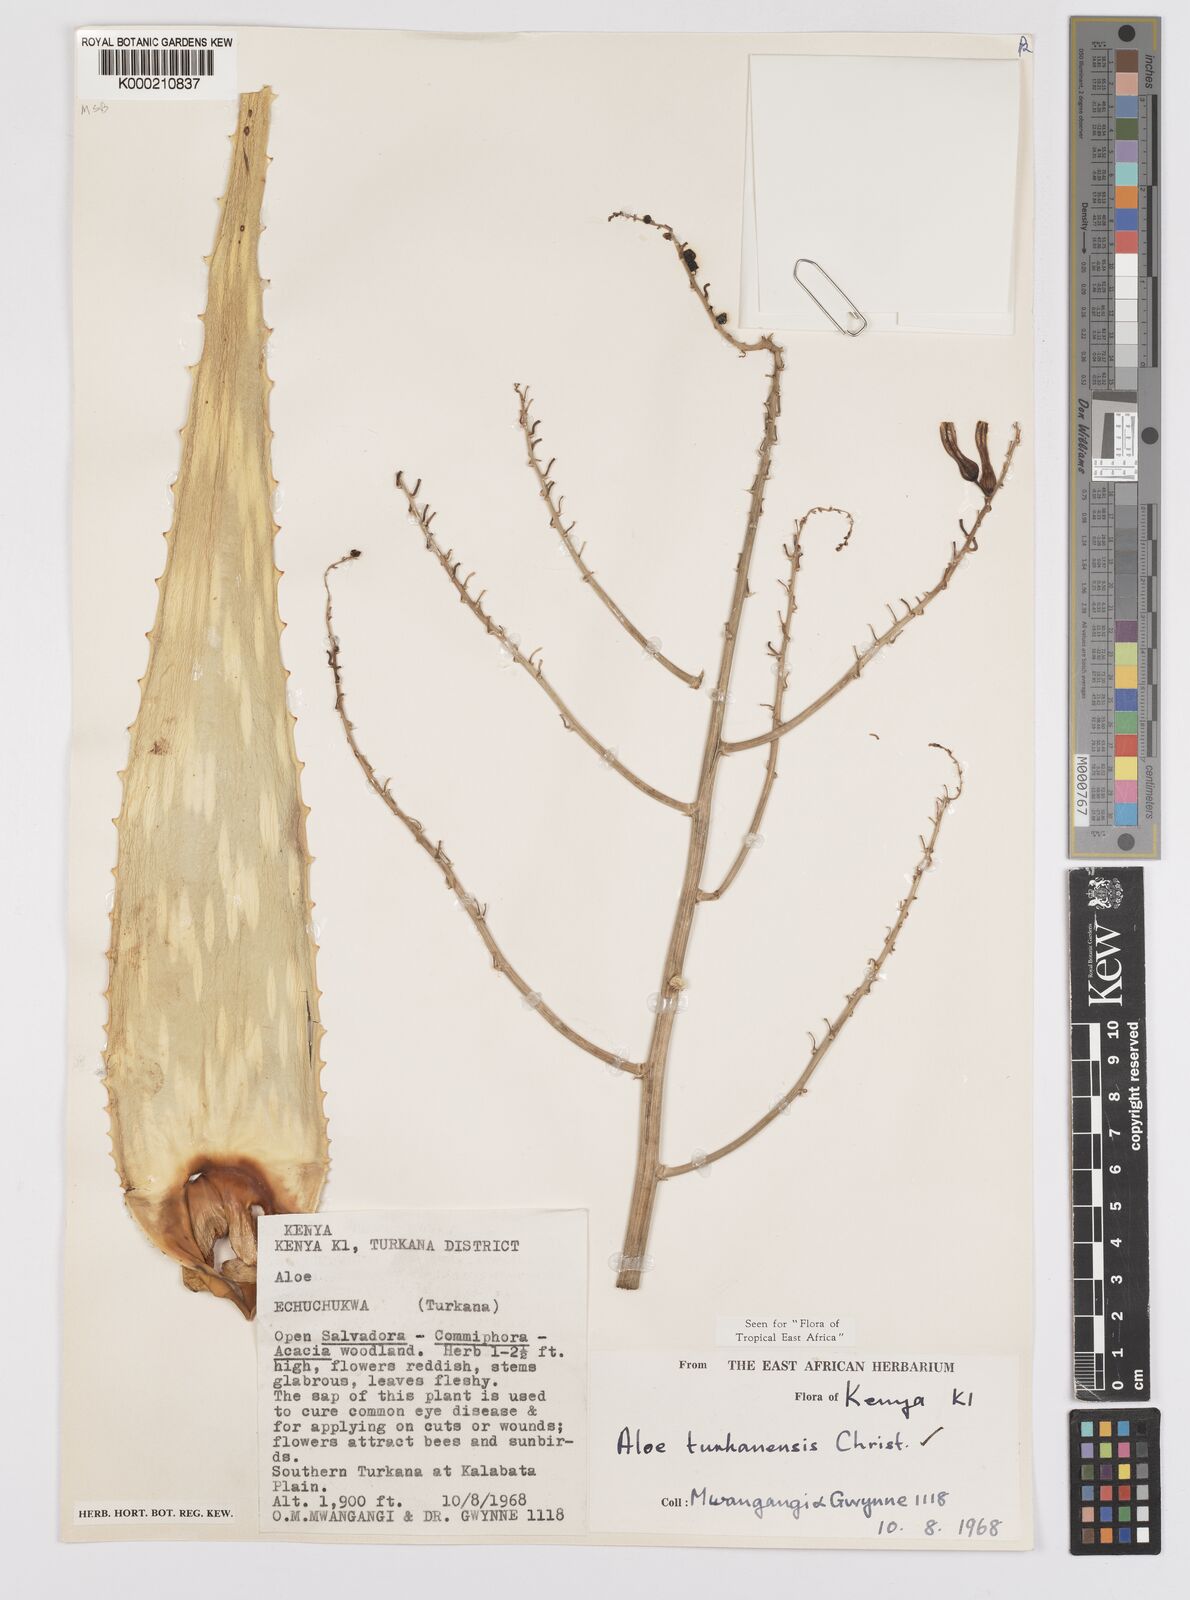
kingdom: Plantae
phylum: Tracheophyta
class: Liliopsida
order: Asparagales
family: Asphodelaceae
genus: Aloe
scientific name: Aloe turkanensis
